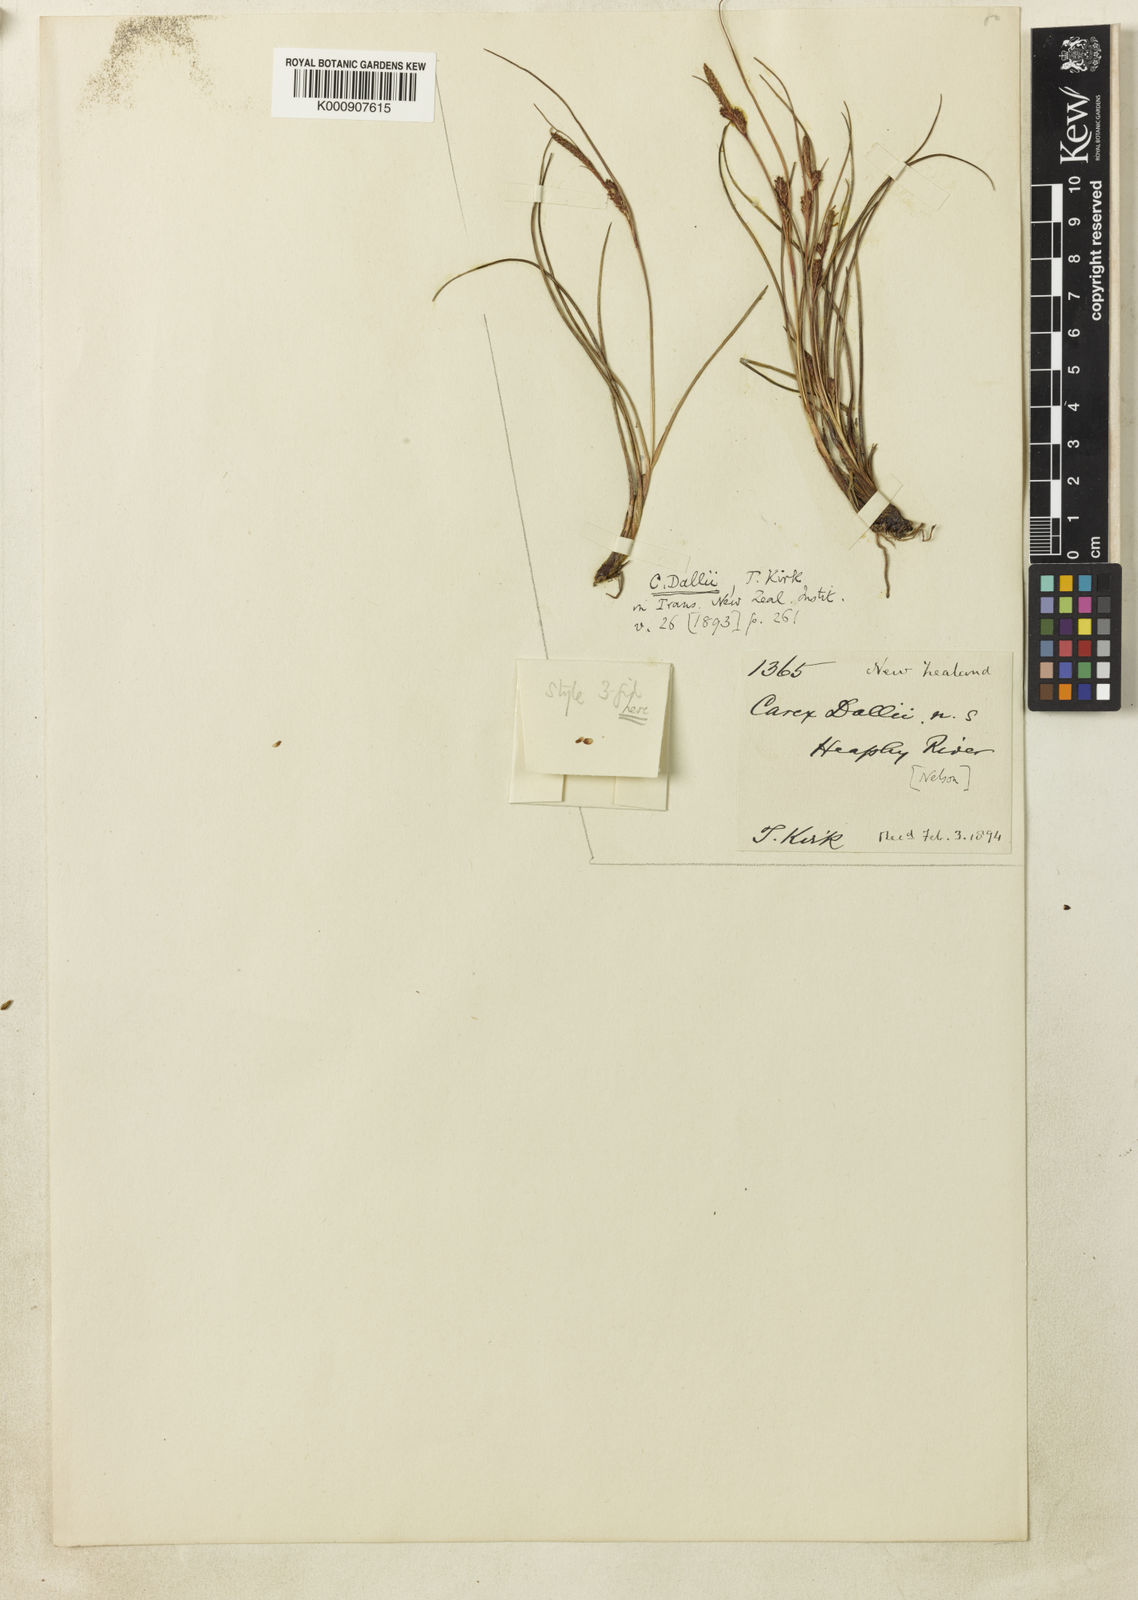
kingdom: Plantae
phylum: Tracheophyta
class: Liliopsida
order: Poales
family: Cyperaceae
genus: Carex
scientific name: Carex dallii
